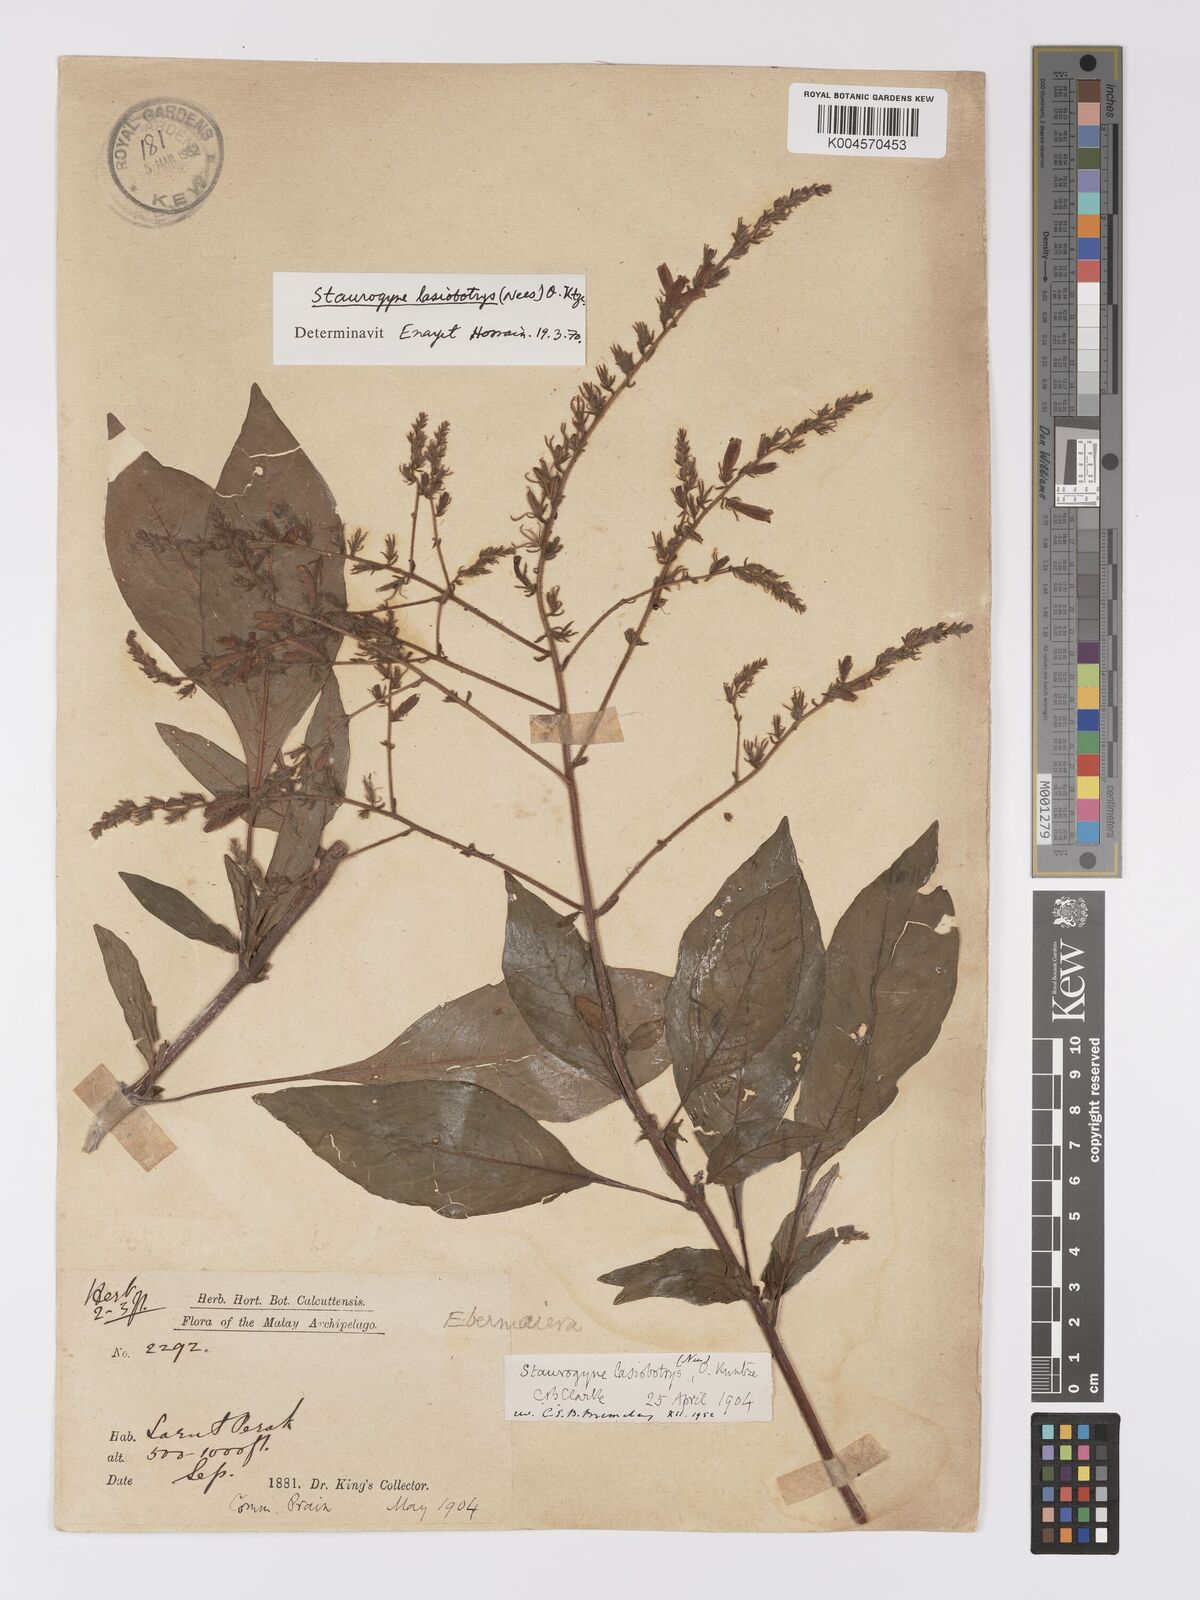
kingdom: Plantae
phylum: Tracheophyta
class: Magnoliopsida
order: Lamiales
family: Acanthaceae
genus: Staurogyne
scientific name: Staurogyne lasiobotrys
